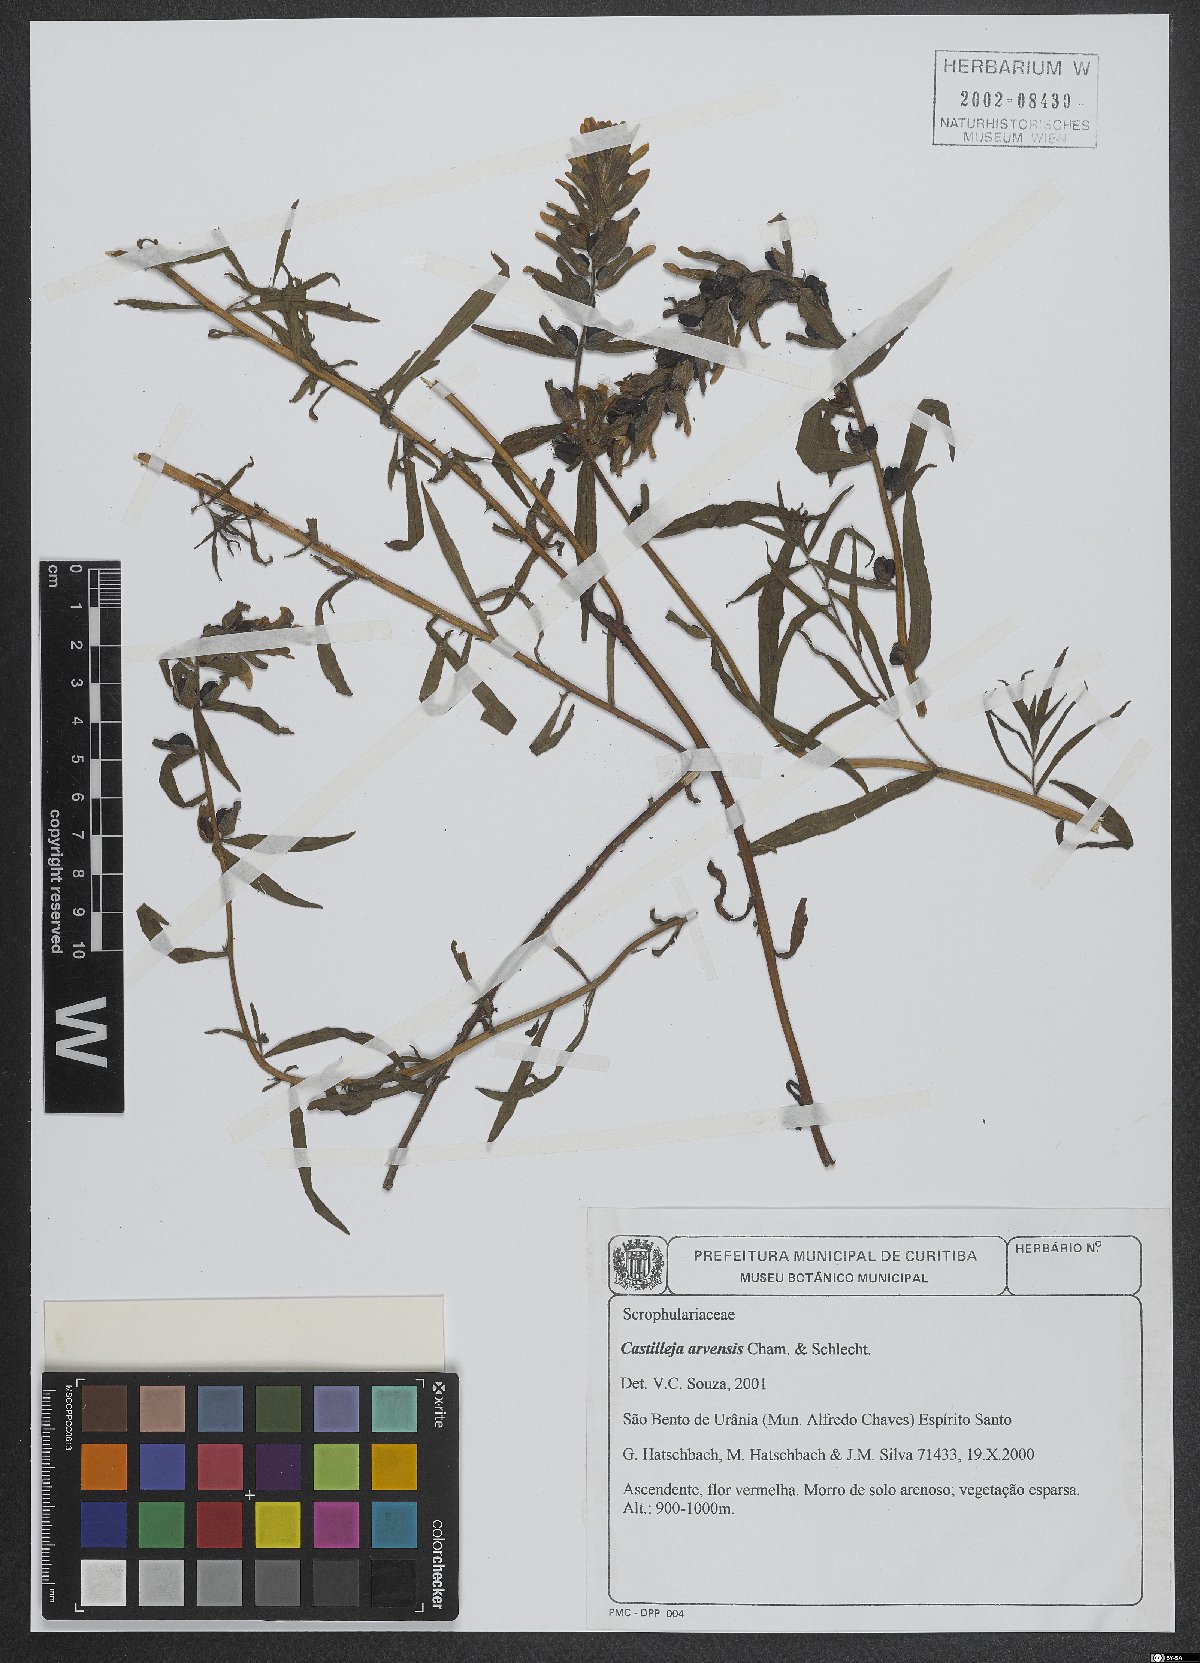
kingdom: Plantae
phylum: Tracheophyta
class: Magnoliopsida
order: Lamiales
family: Orobanchaceae
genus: Castilleja
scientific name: Castilleja arvensis
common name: Indian paintbrush
